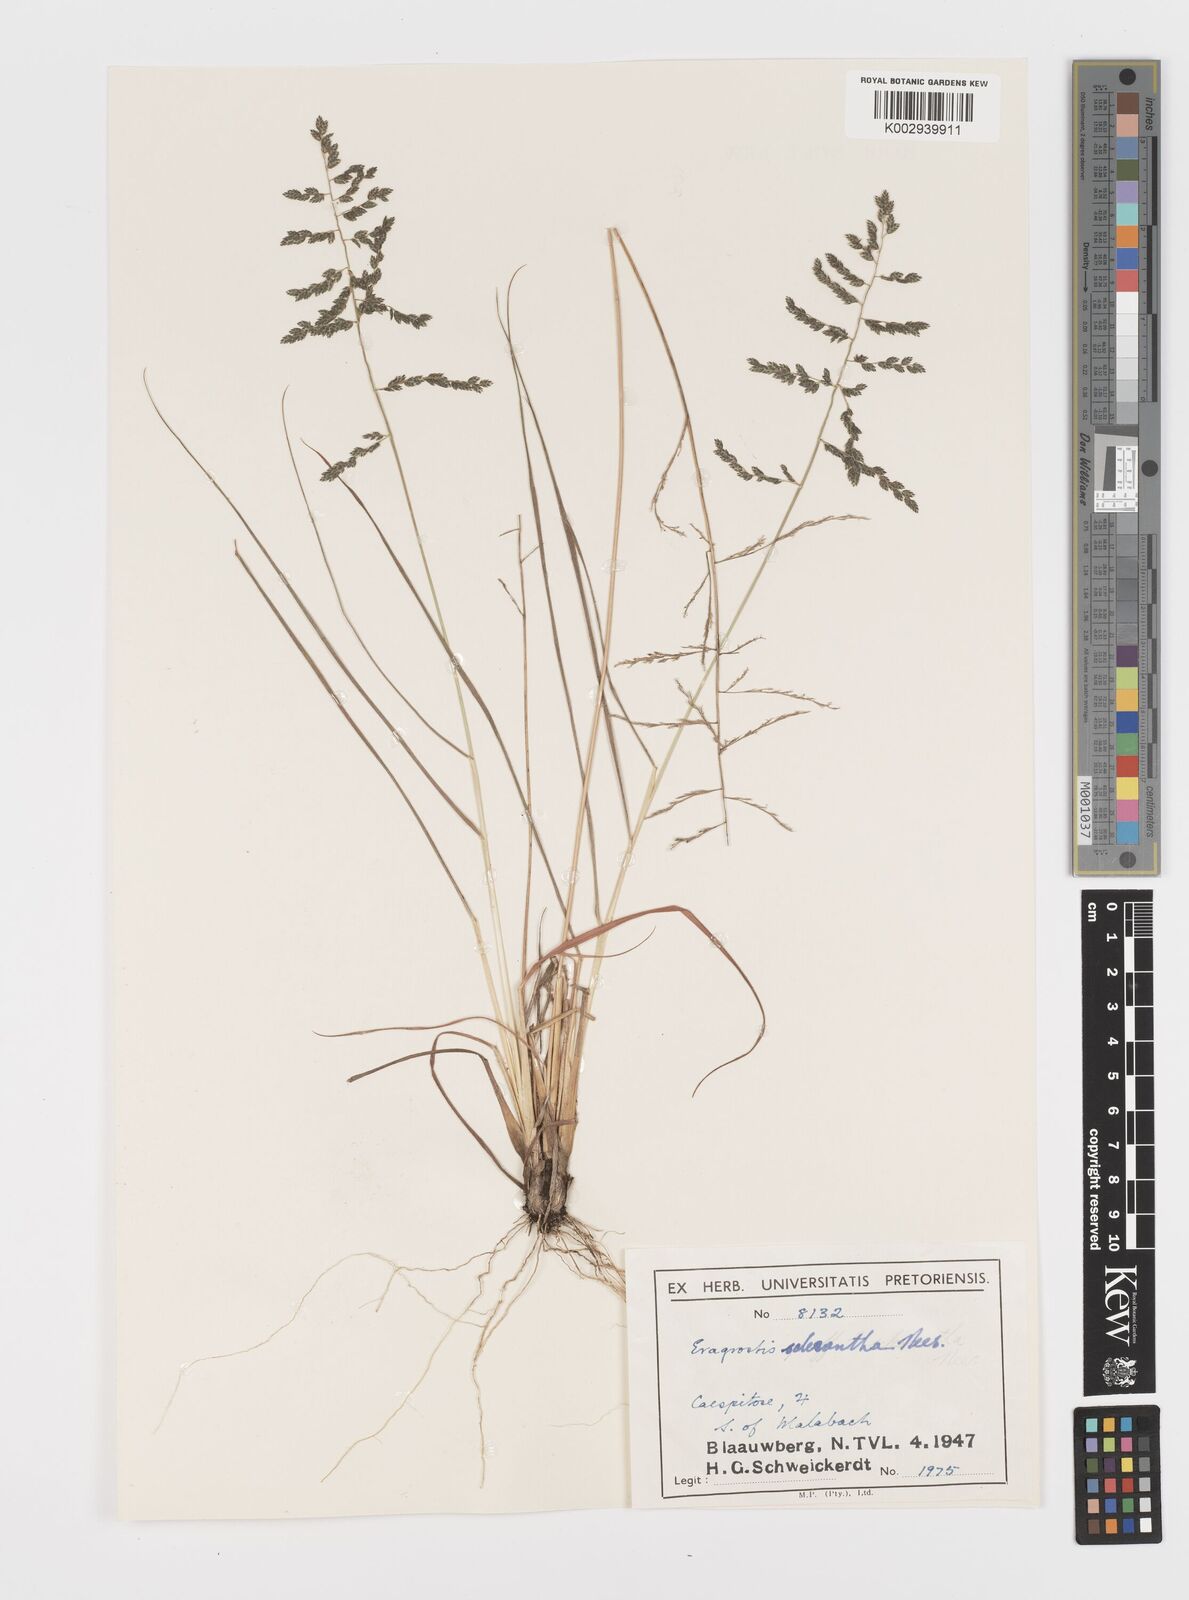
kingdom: Plantae
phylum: Tracheophyta
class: Liliopsida
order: Poales
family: Poaceae
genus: Eragrostis
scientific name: Eragrostis sclerantha
